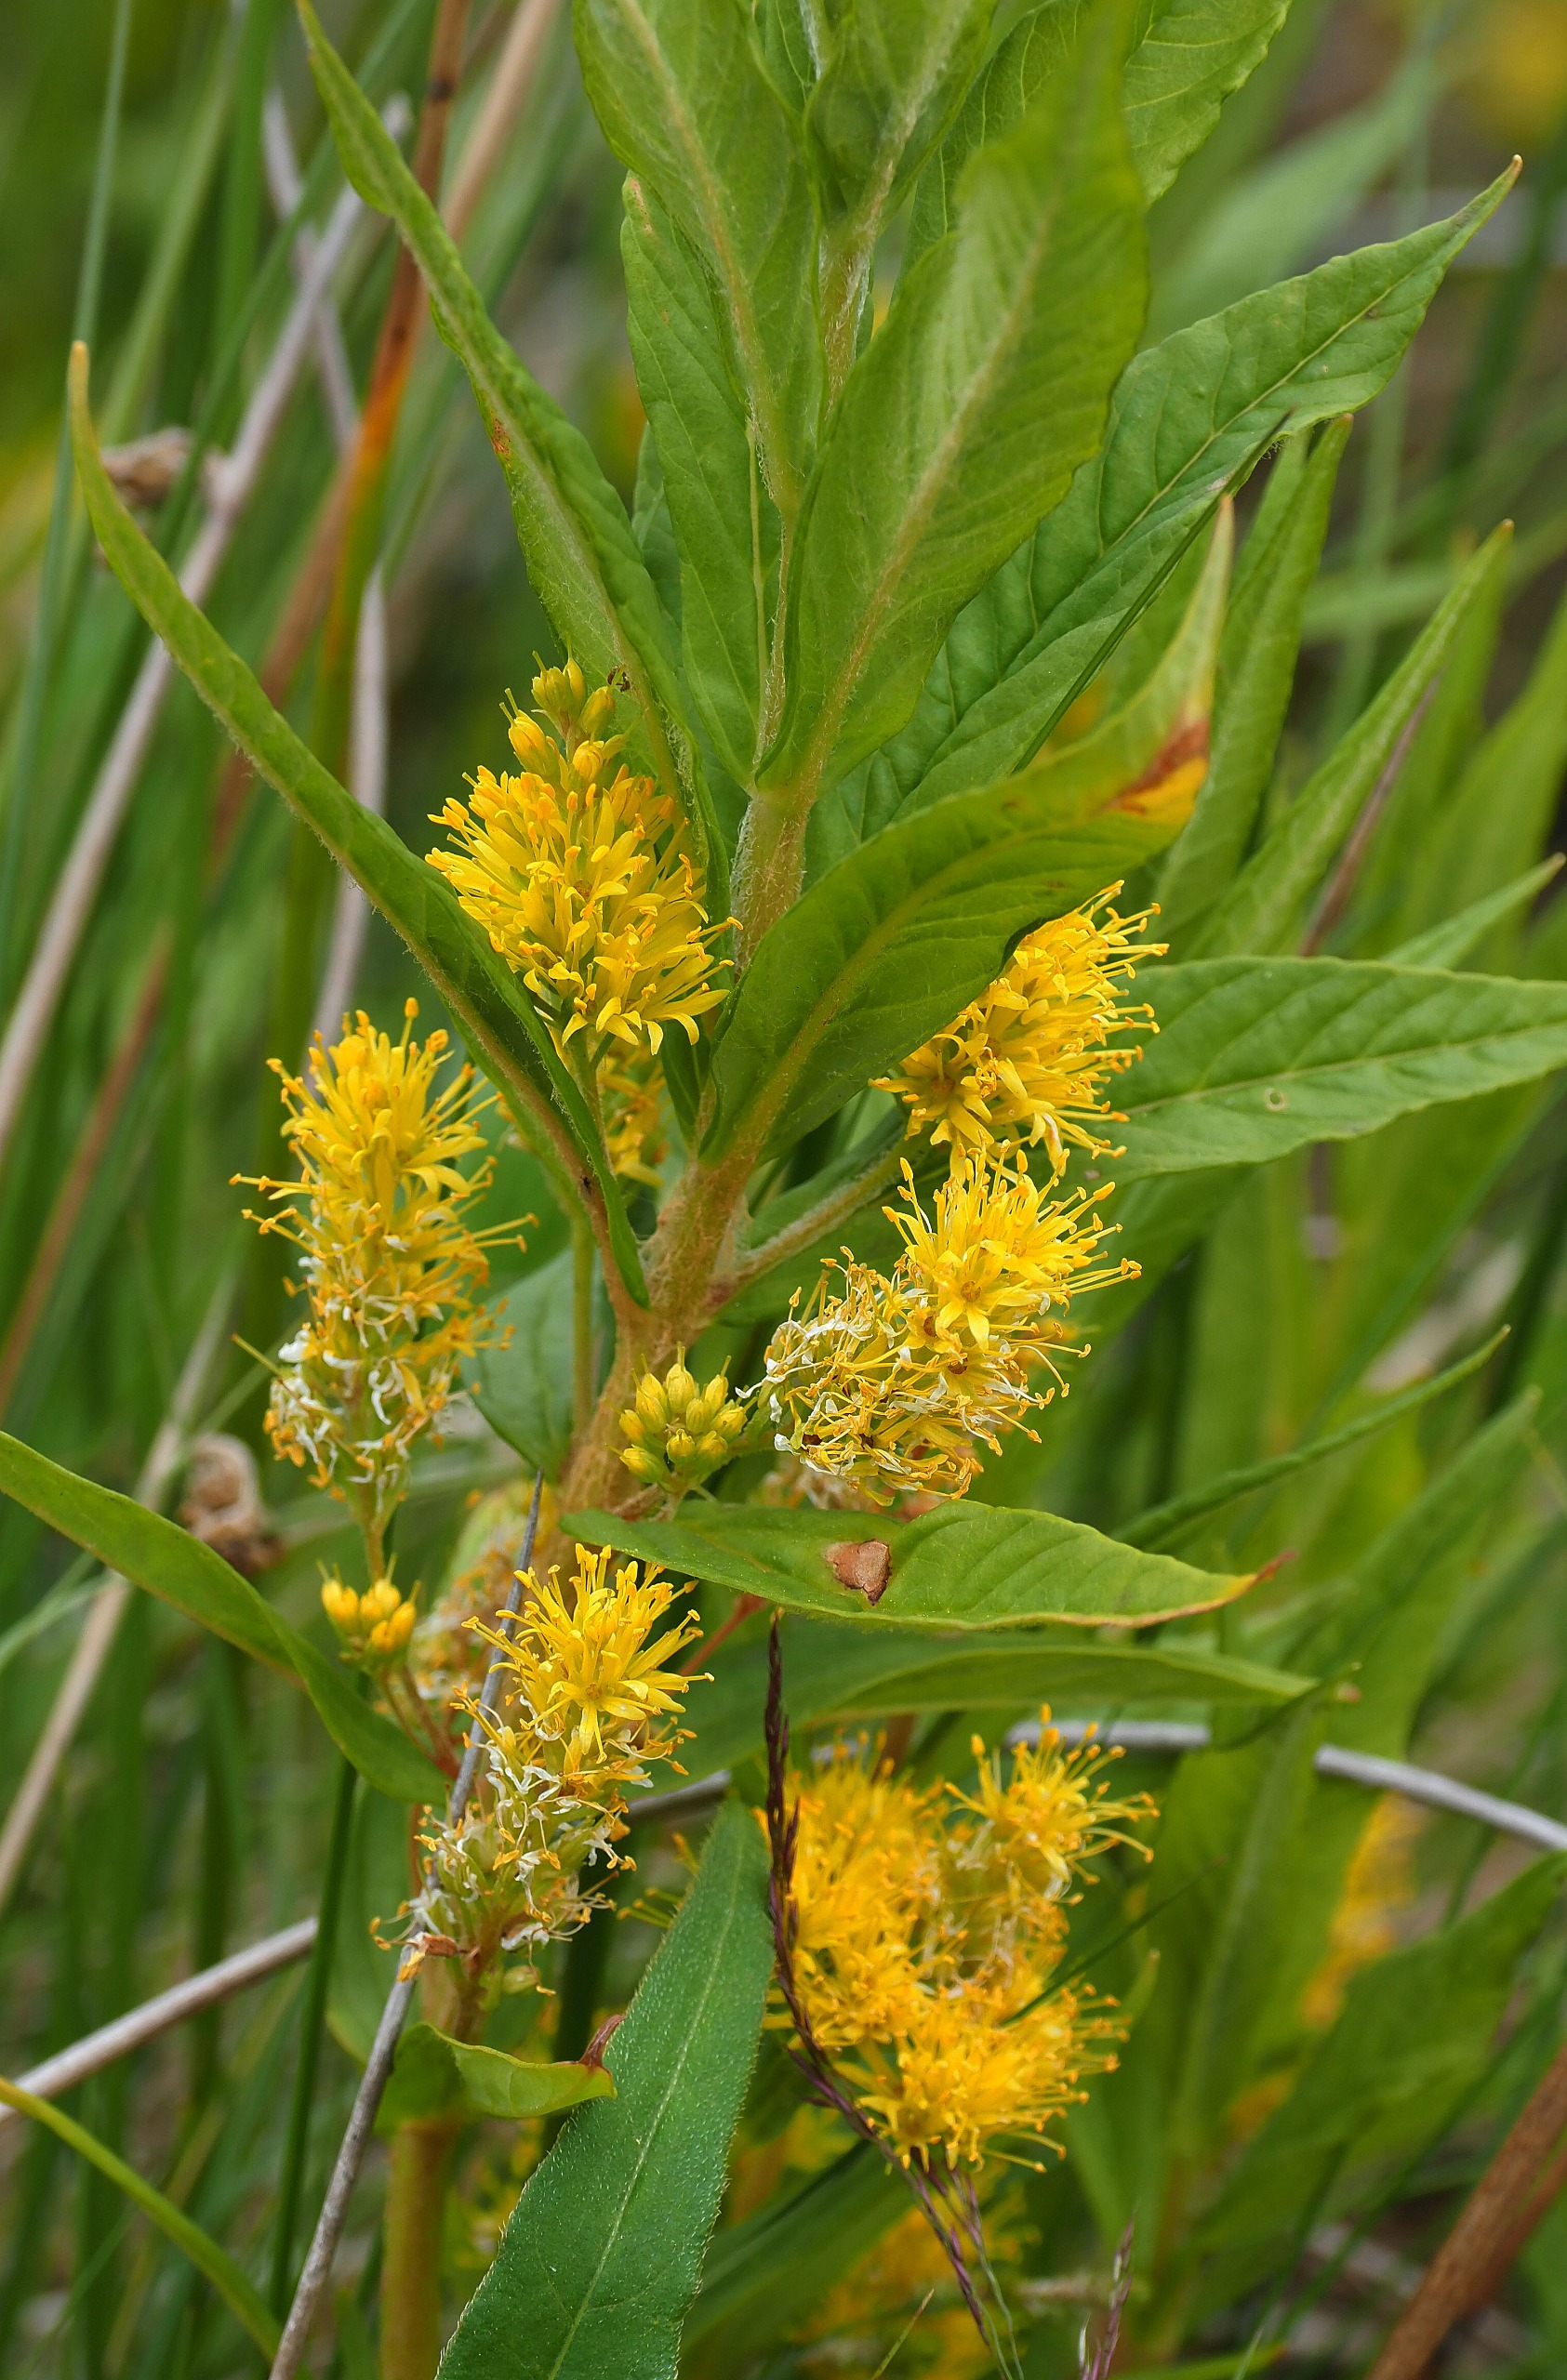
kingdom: Plantae
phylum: Tracheophyta
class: Magnoliopsida
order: Ericales
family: Primulaceae
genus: Lysimachia
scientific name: Lysimachia thyrsiflora
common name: Dusk-fredløs
